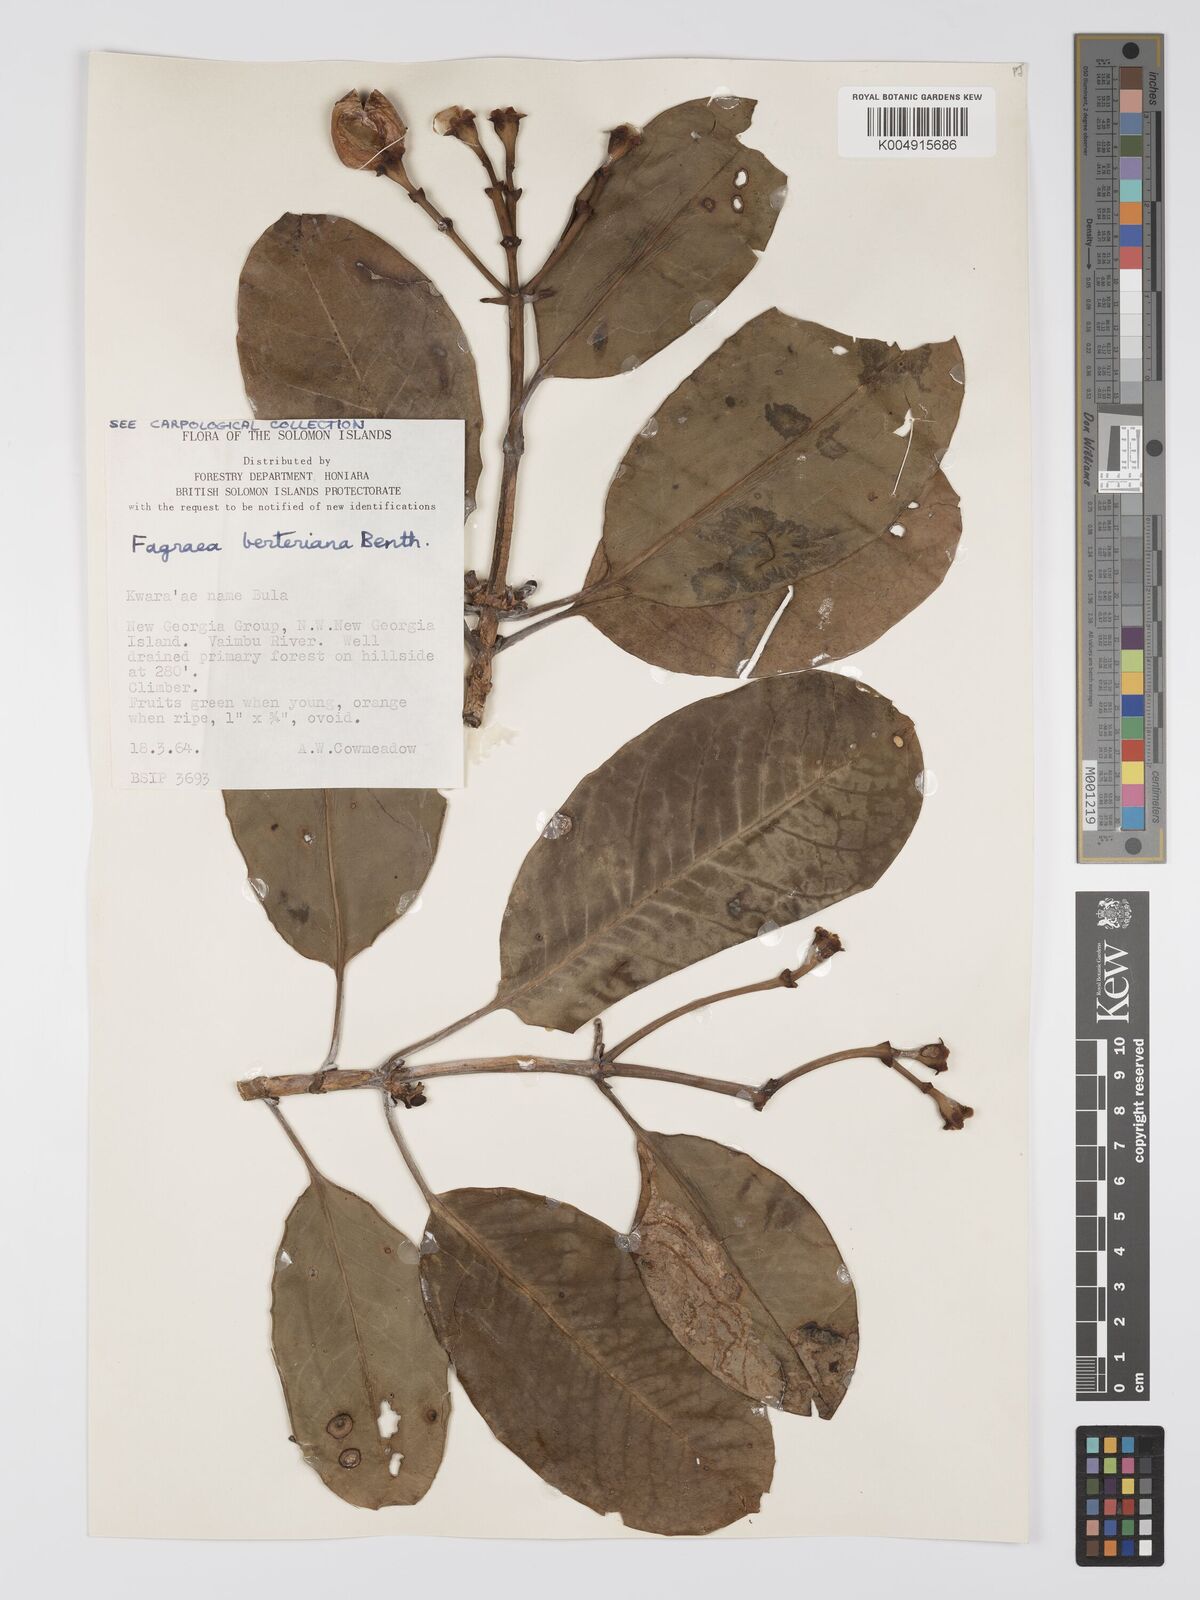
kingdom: Plantae
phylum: Tracheophyta
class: Magnoliopsida
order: Gentianales
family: Gentianaceae
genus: Fagraea
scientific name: Fagraea berteroana
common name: Cape jitta
